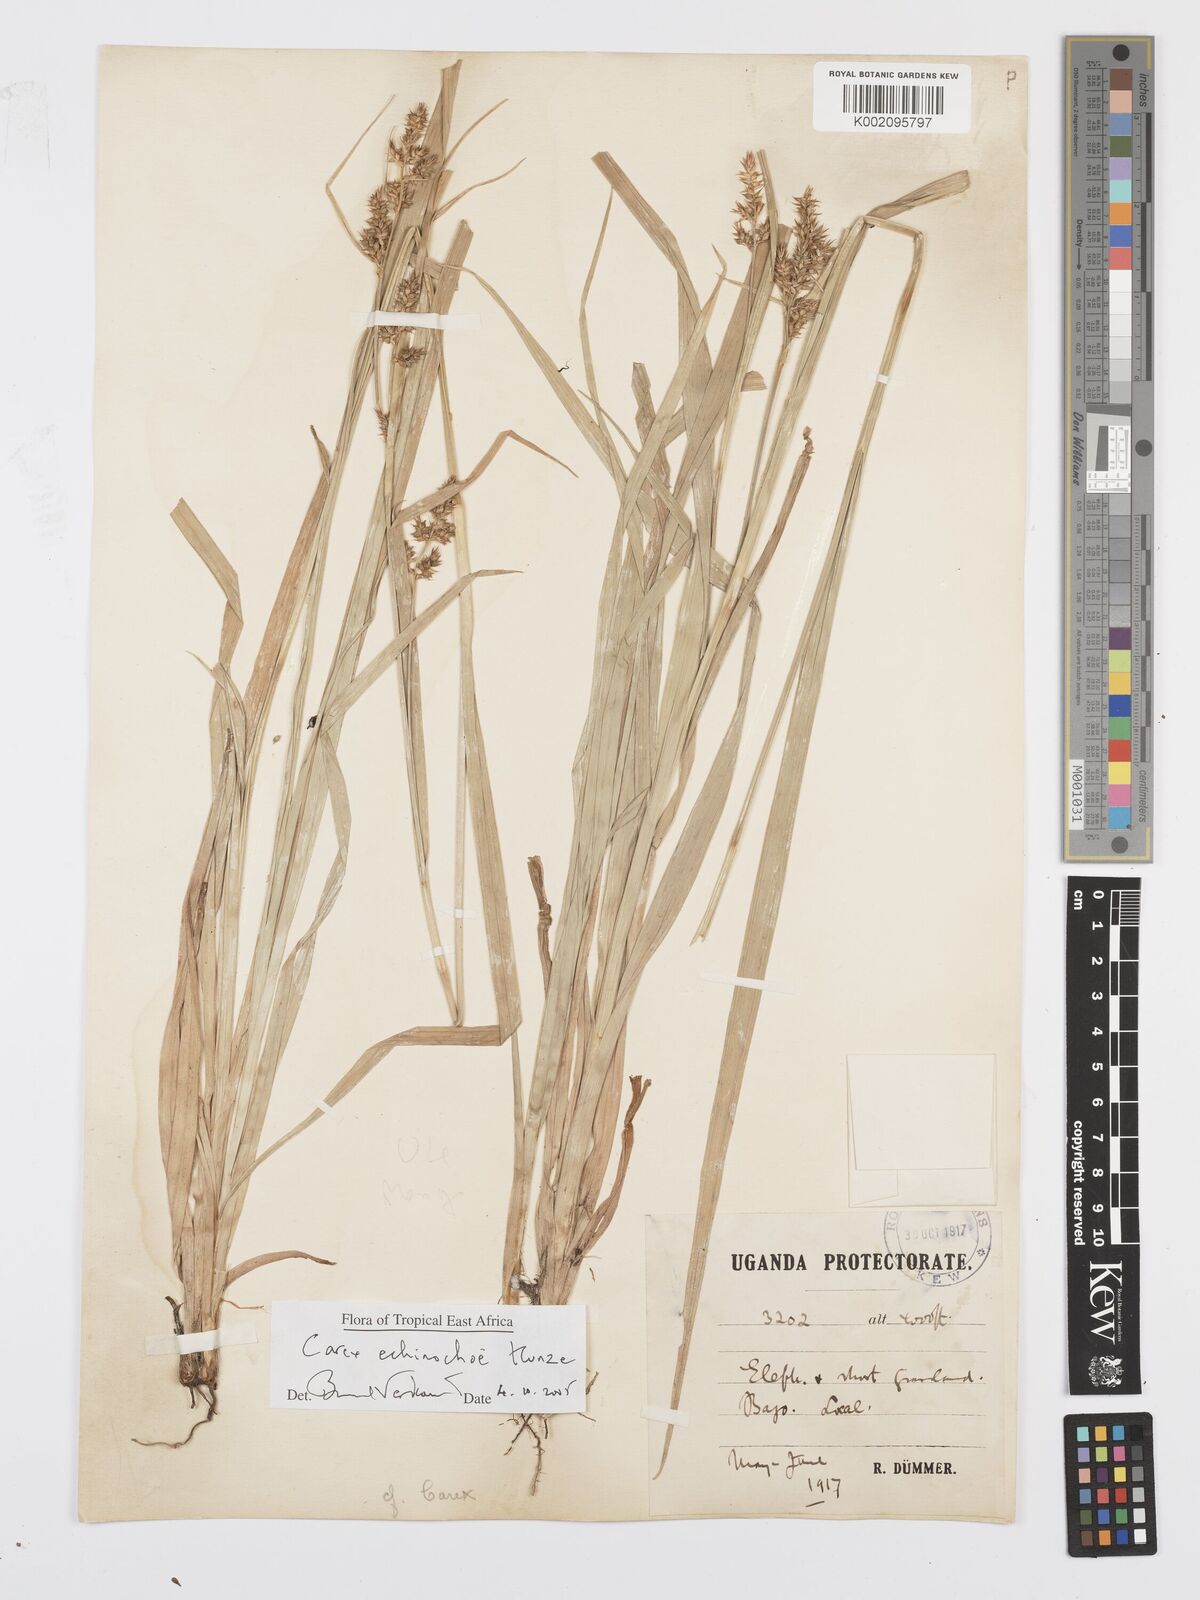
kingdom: Plantae
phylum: Tracheophyta
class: Liliopsida
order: Poales
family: Cyperaceae
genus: Carex
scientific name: Carex echinochloe
